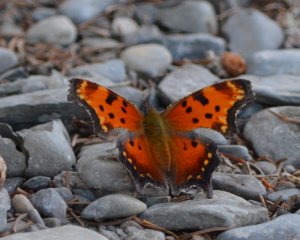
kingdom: Animalia
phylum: Arthropoda
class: Insecta
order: Lepidoptera
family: Nymphalidae
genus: Polygonia
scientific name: Polygonia progne
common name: Gray Comma
